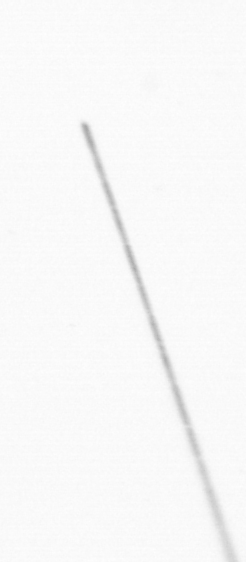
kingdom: Chromista
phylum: Ochrophyta
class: Bacillariophyceae
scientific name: Bacillariophyceae
